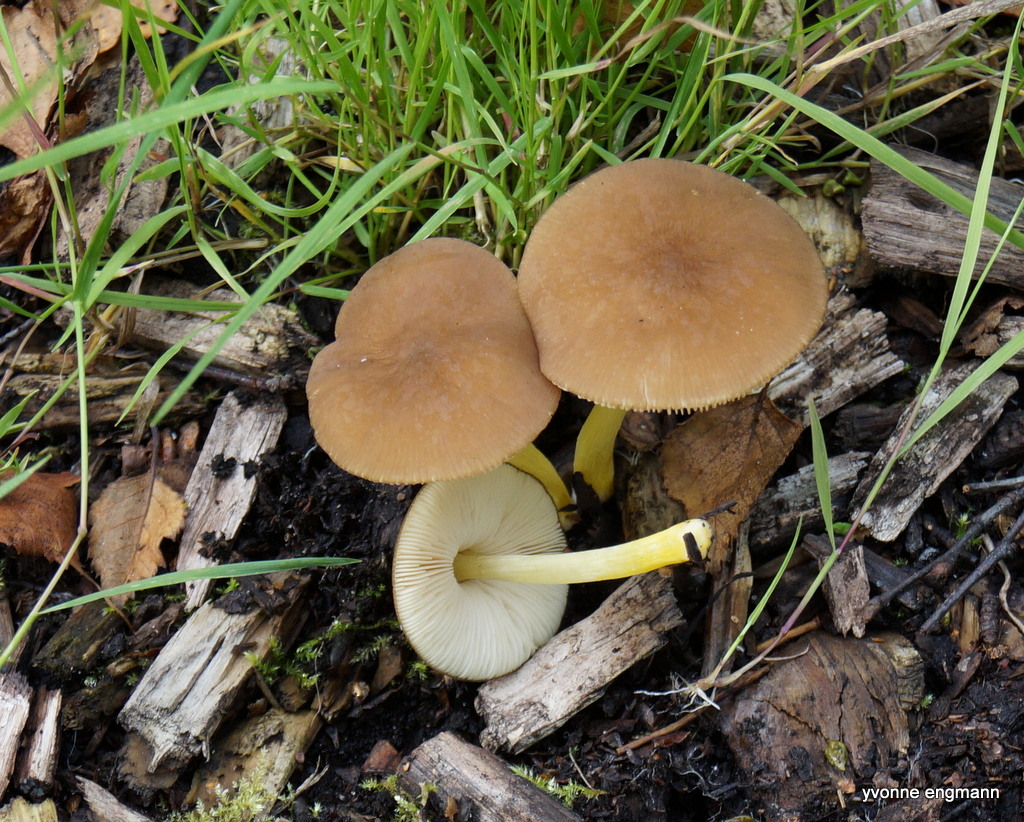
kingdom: Fungi
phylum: Basidiomycota
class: Agaricomycetes
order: Agaricales
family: Pluteaceae
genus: Pluteus
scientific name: Pluteus romellii
